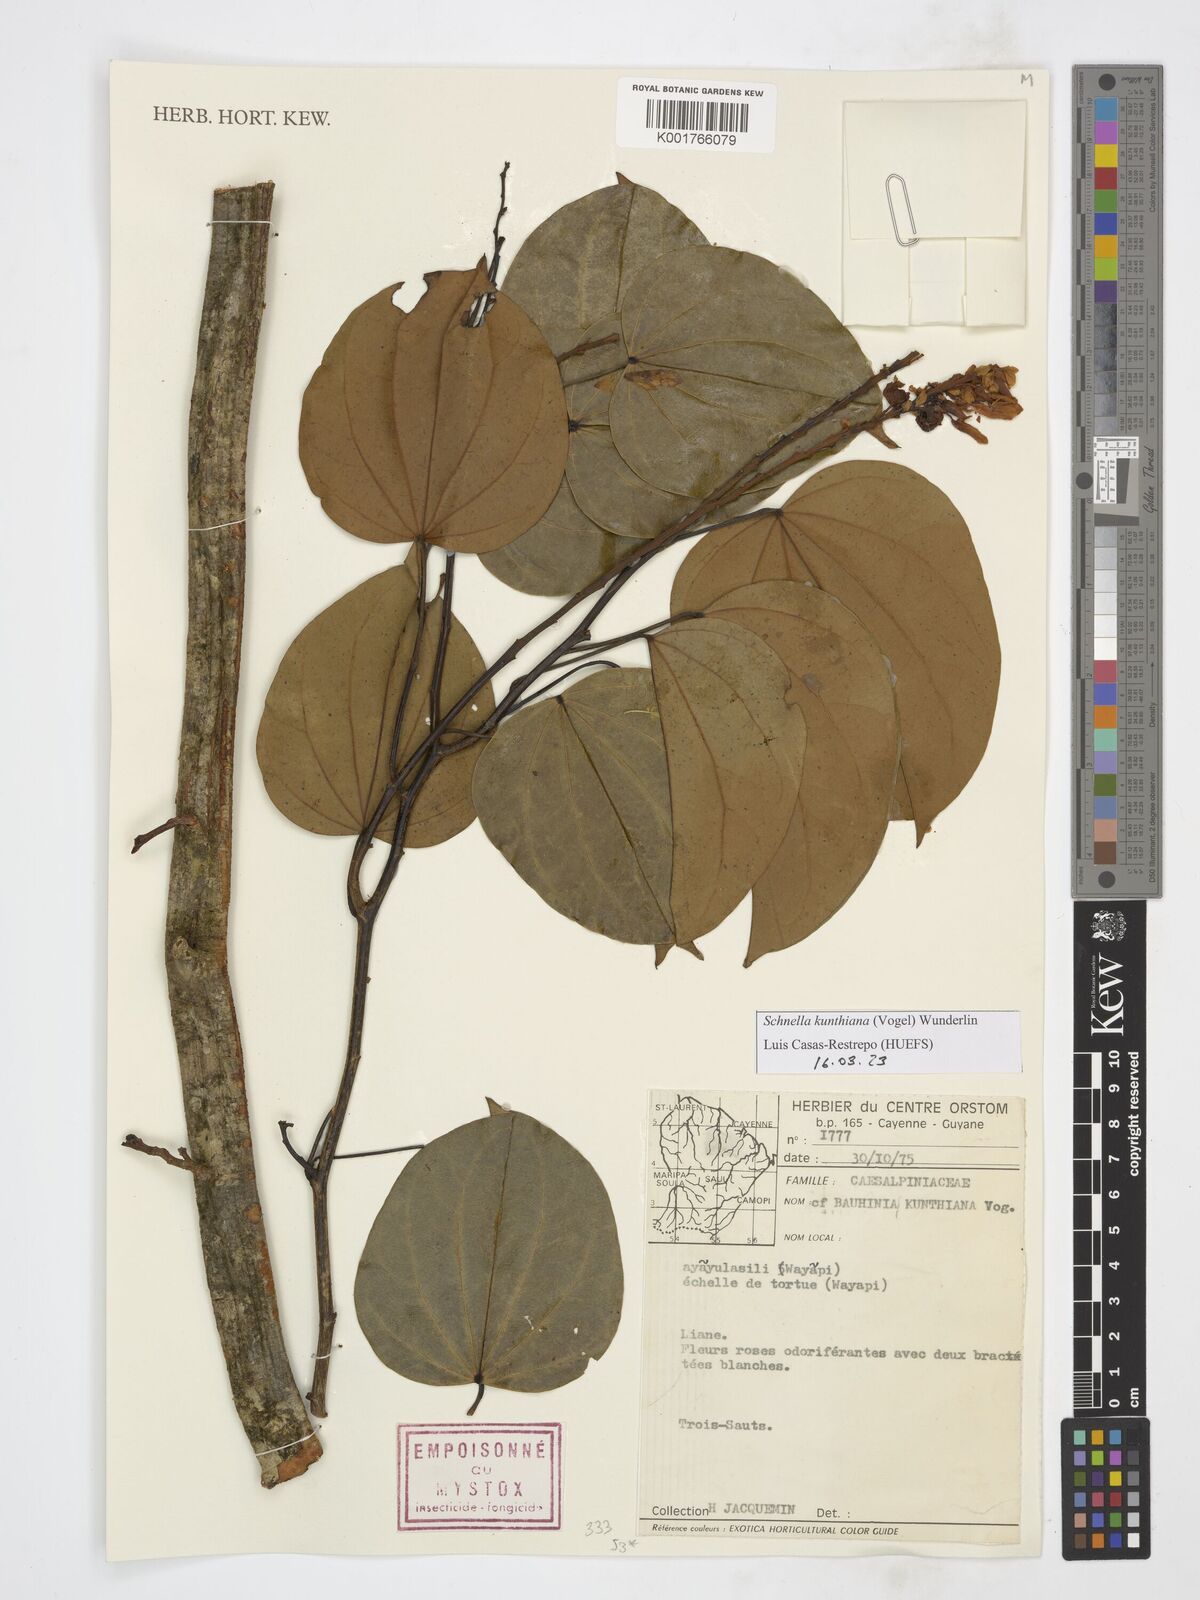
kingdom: Plantae
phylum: Tracheophyta
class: Magnoliopsida
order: Fabales
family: Fabaceae
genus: Schnella
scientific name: Schnella kunthiana
